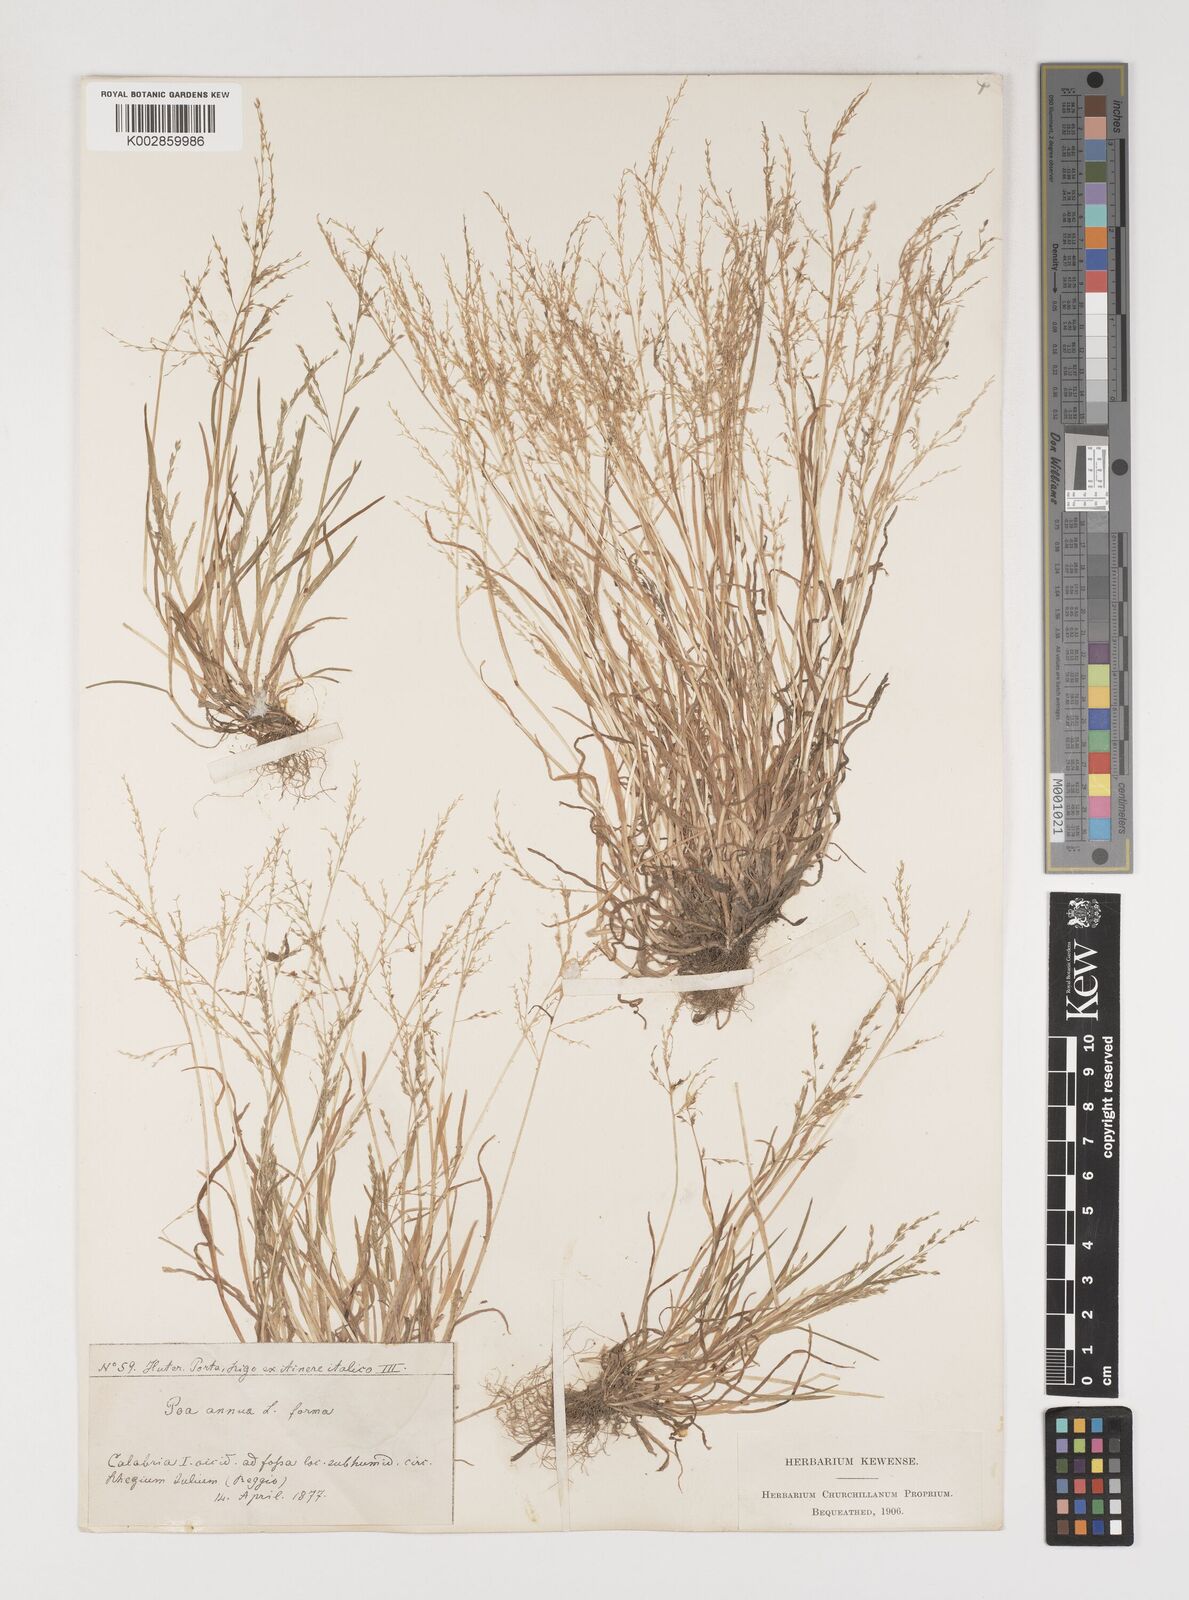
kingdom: Plantae
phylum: Tracheophyta
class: Liliopsida
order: Poales
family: Poaceae
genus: Poa
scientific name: Poa infirma
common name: Weak bluegrass
